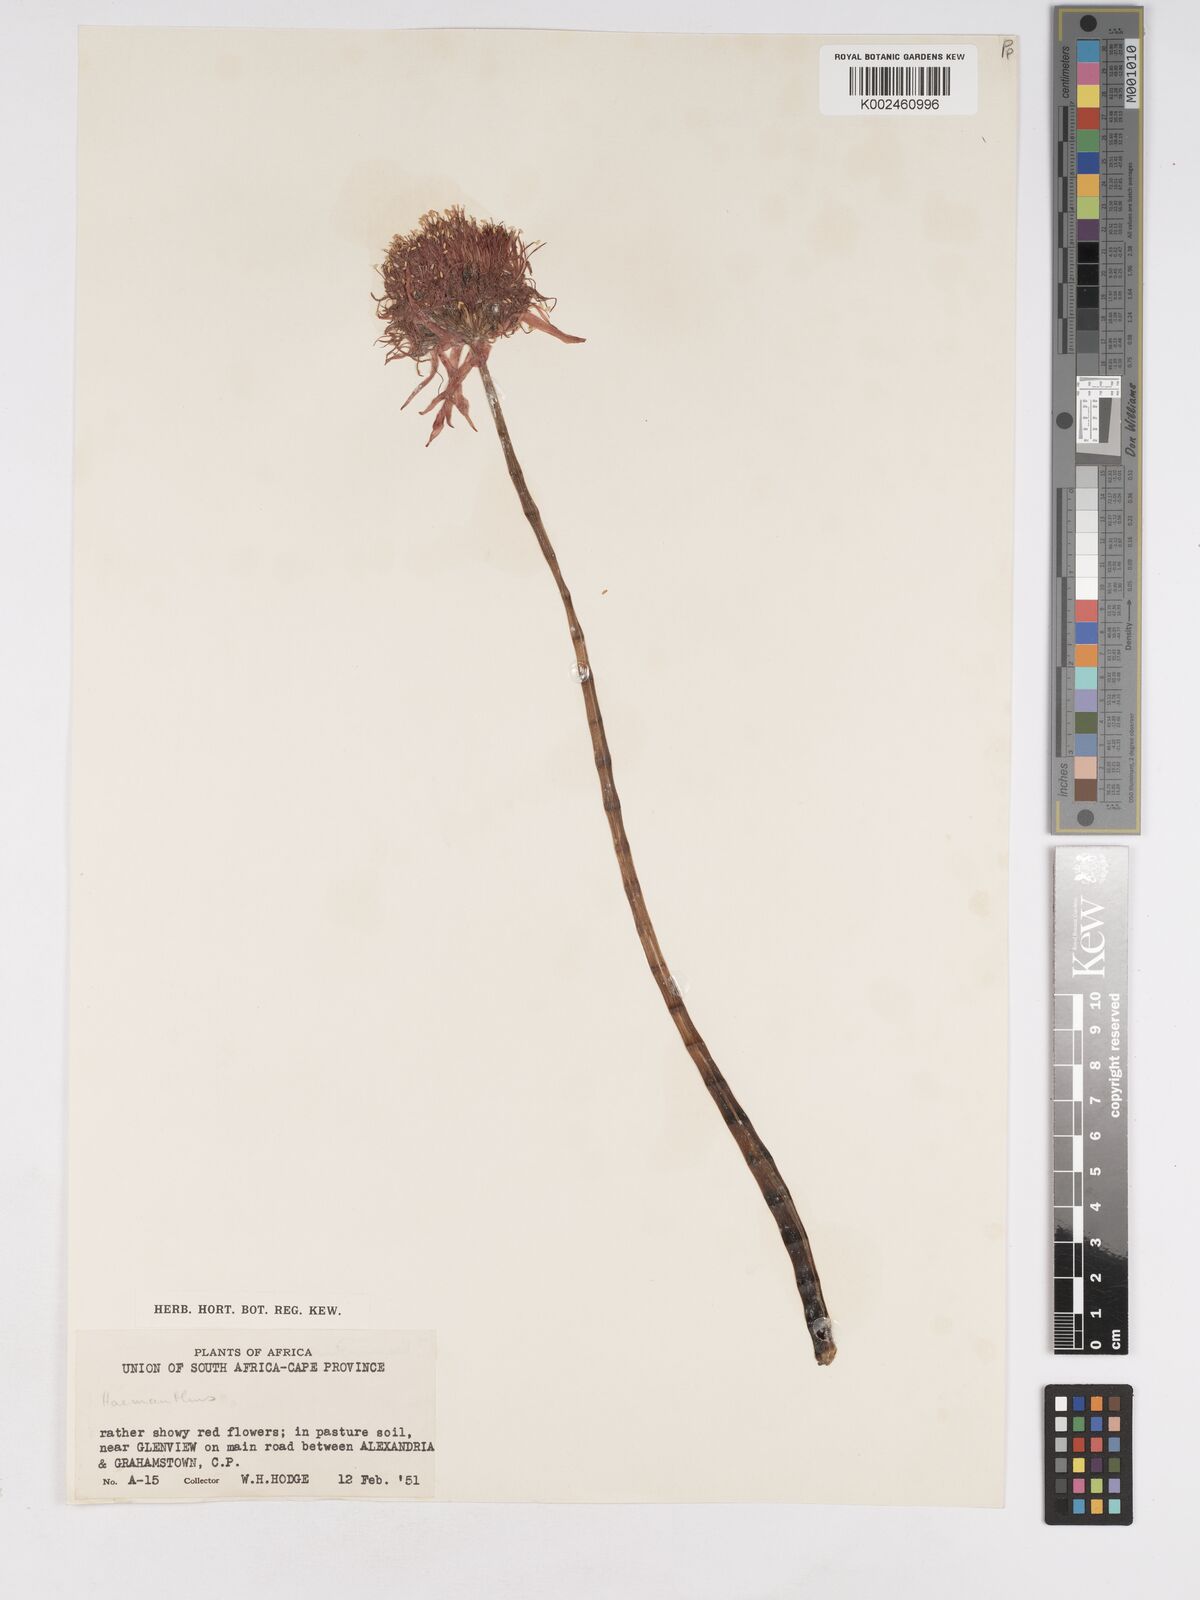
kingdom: Plantae
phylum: Tracheophyta
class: Liliopsida
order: Asparagales
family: Amaryllidaceae
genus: Haemanthus
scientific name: Haemanthus
